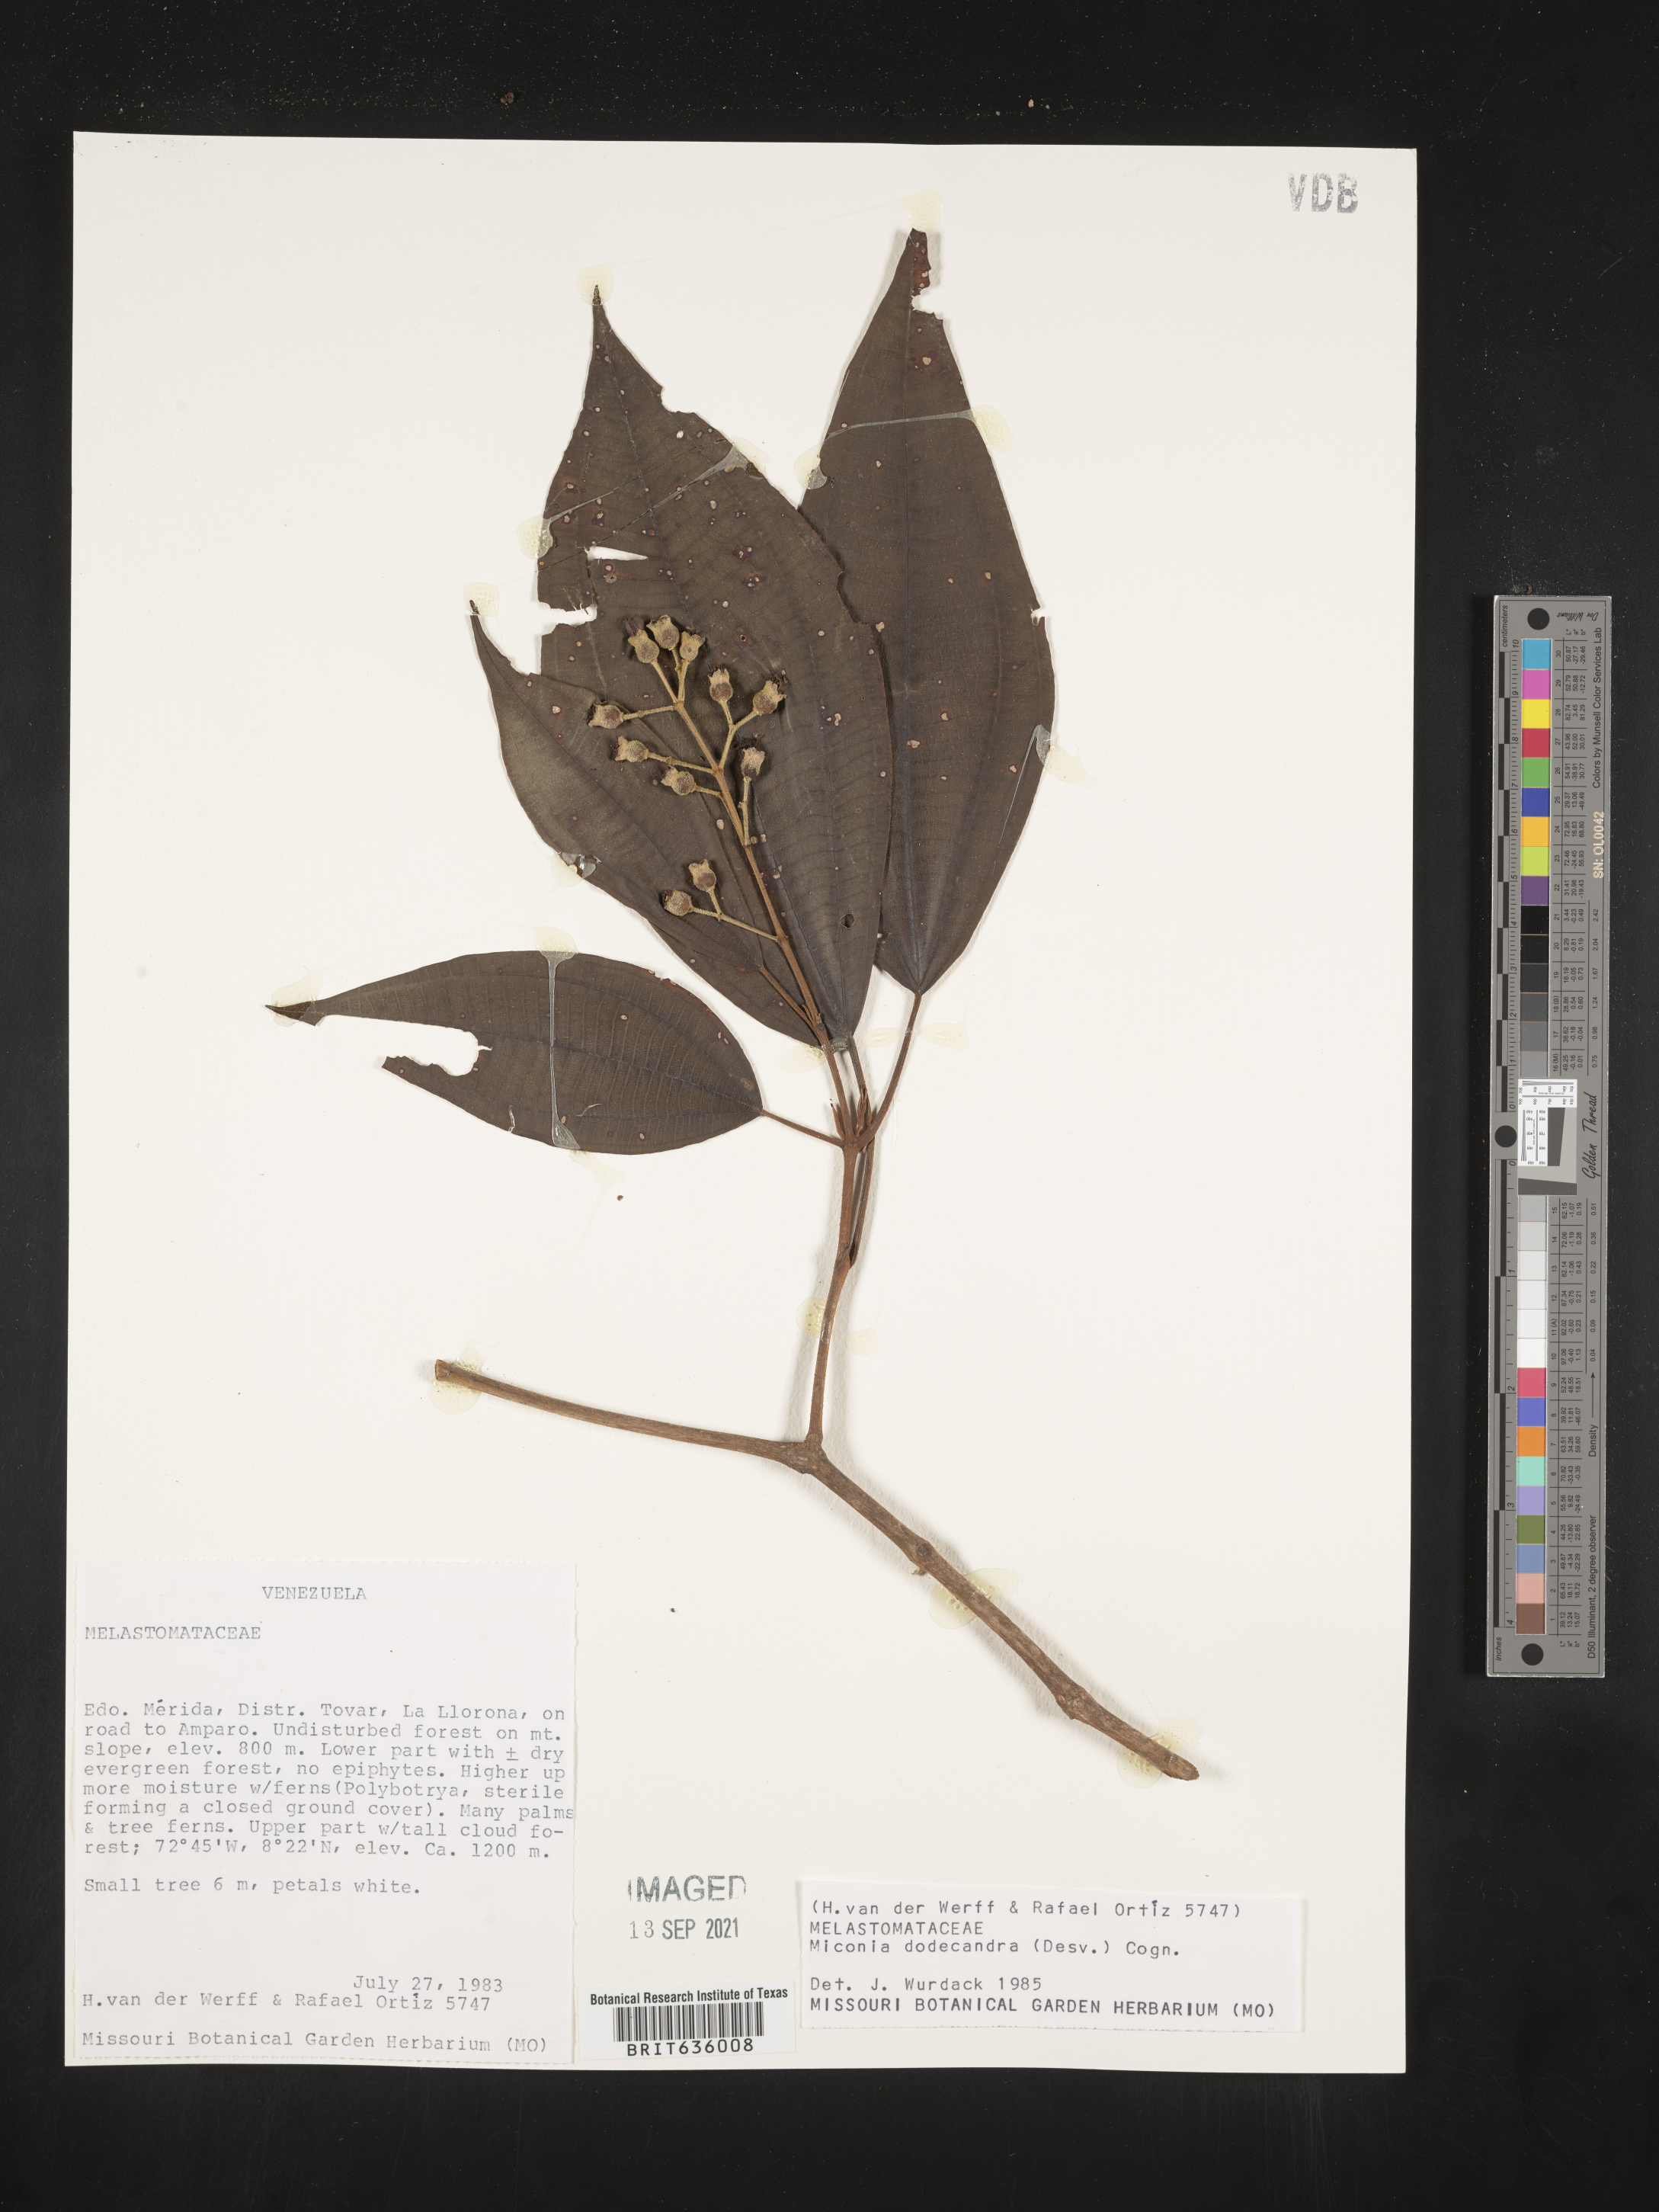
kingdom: Plantae
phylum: Tracheophyta
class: Magnoliopsida
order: Myrtales
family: Melastomataceae
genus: Miconia
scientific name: Miconia
